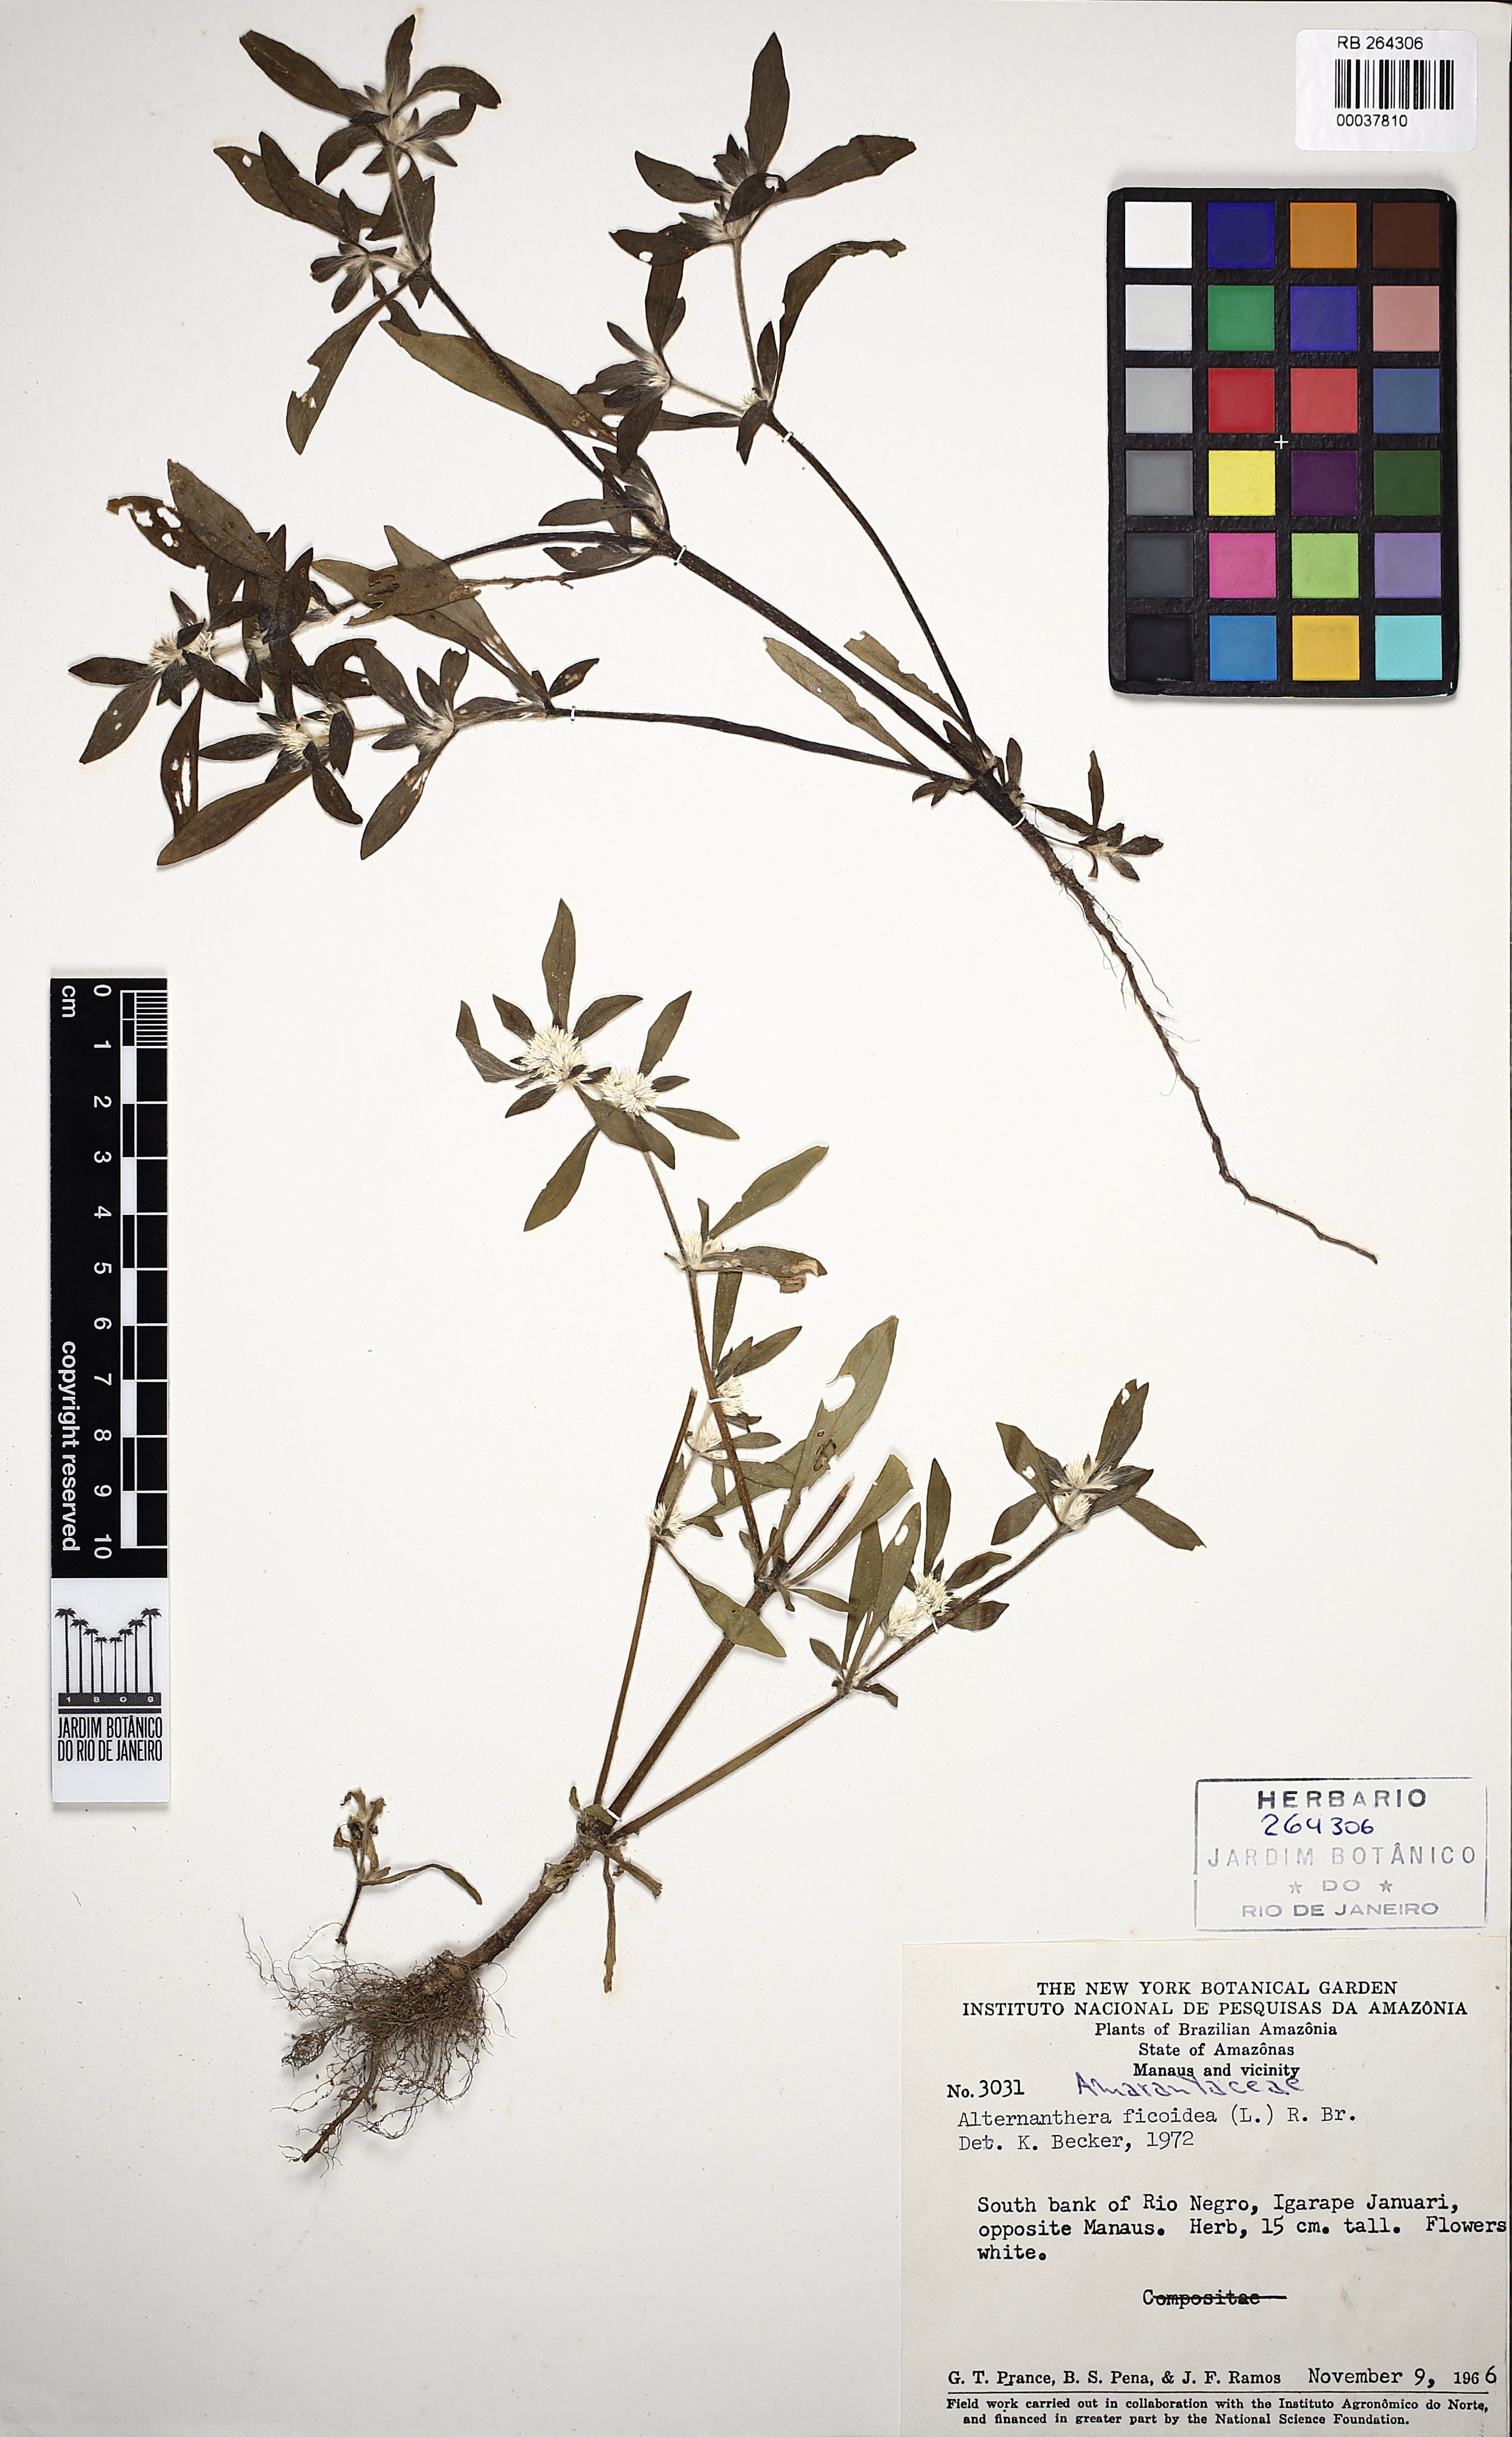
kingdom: Plantae
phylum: Tracheophyta
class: Magnoliopsida
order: Caryophyllales
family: Amaranthaceae
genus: Alternanthera
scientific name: Alternanthera paronychioides
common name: Smooth joyweed
